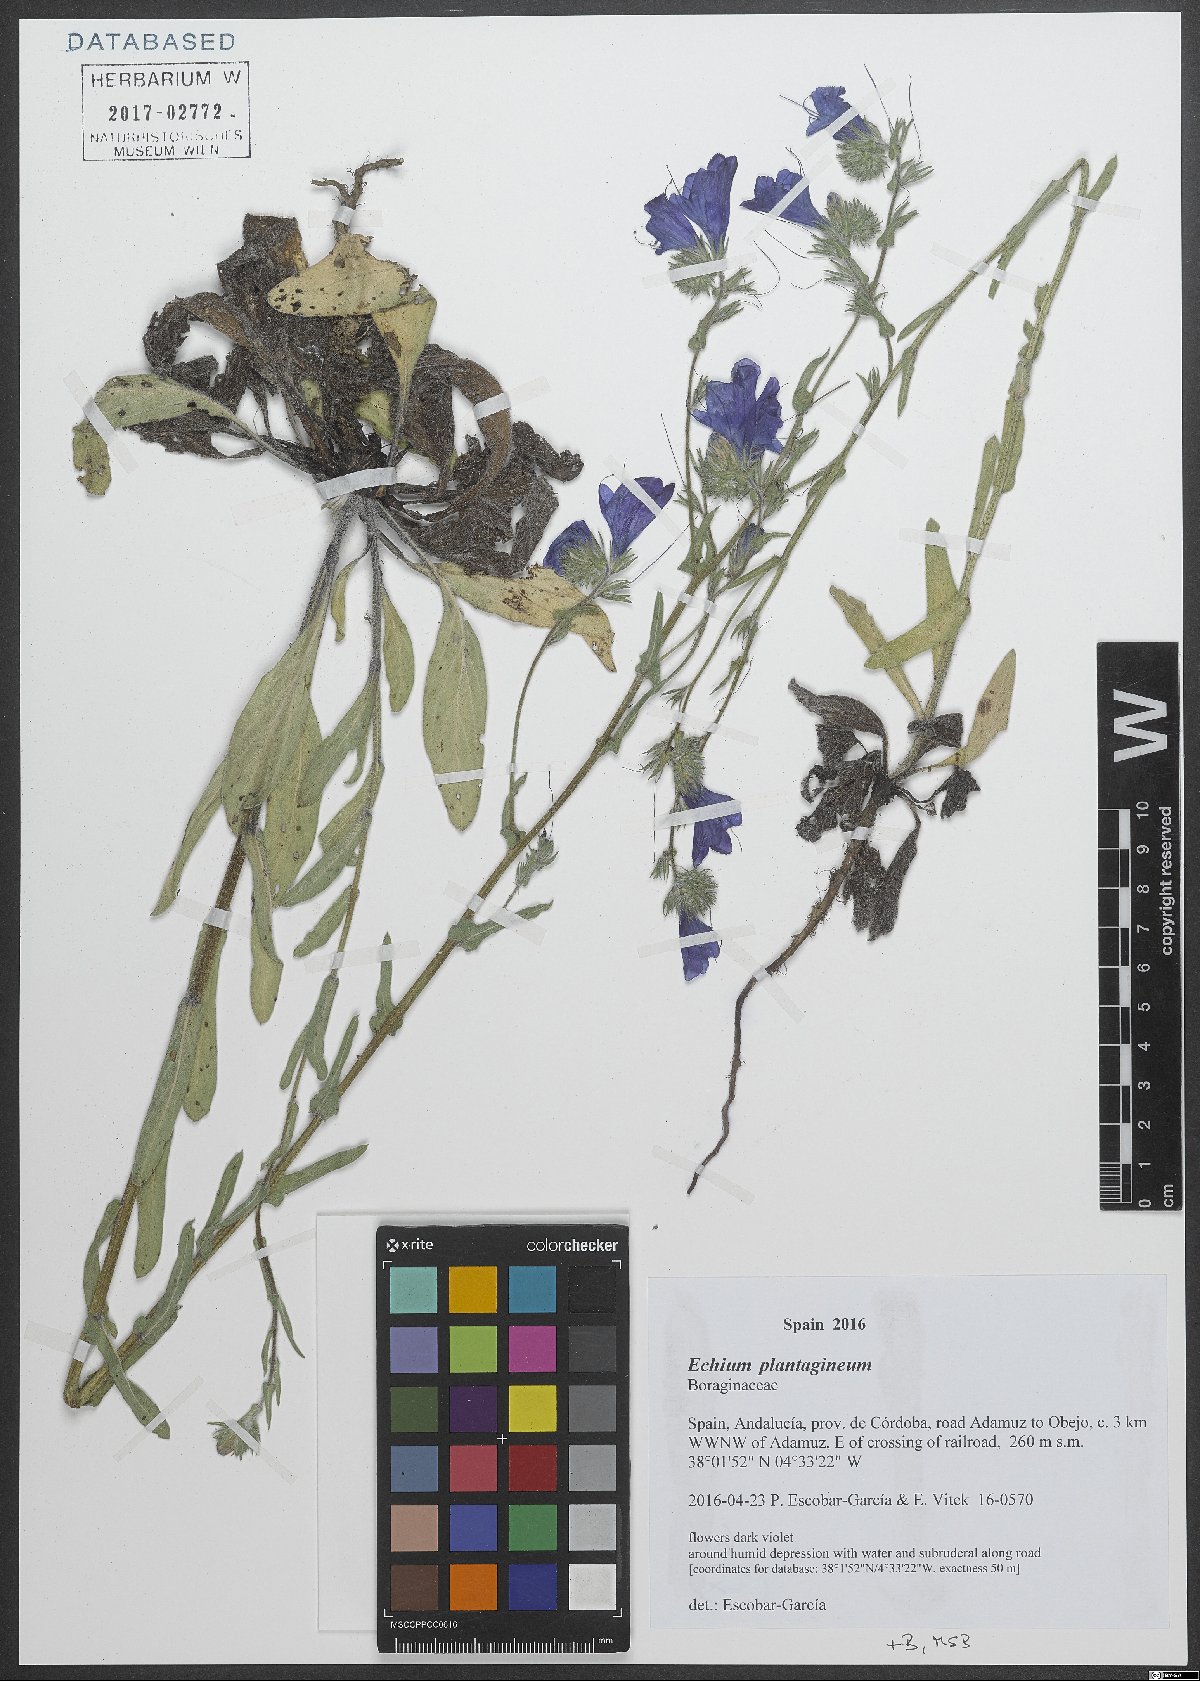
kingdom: Plantae
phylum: Tracheophyta
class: Magnoliopsida
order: Boraginales
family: Boraginaceae
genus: Echium
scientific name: Echium plantagineum
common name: Purple viper's-bugloss
